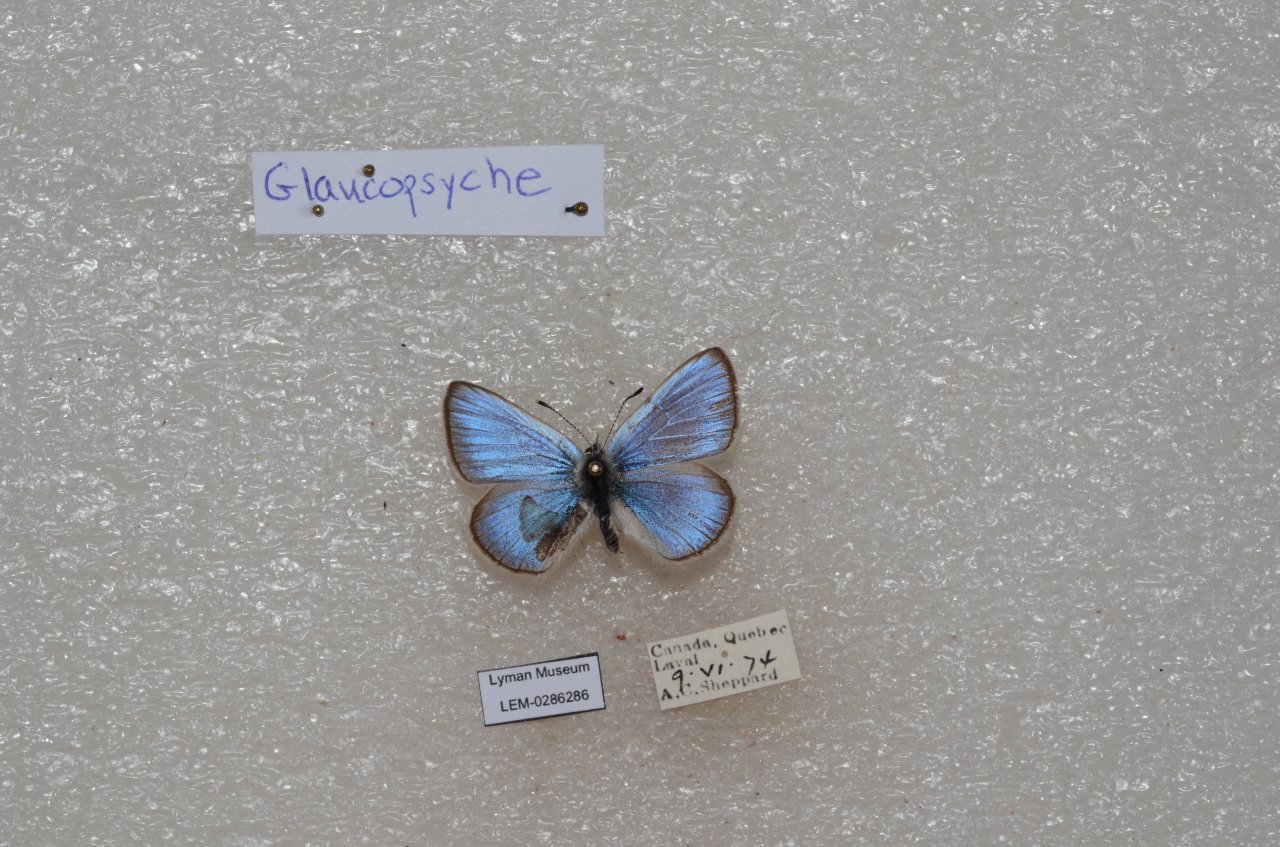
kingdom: Animalia
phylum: Arthropoda
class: Insecta
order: Lepidoptera
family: Lycaenidae
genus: Glaucopsyche
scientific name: Glaucopsyche lygdamus
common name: Silvery Blue
